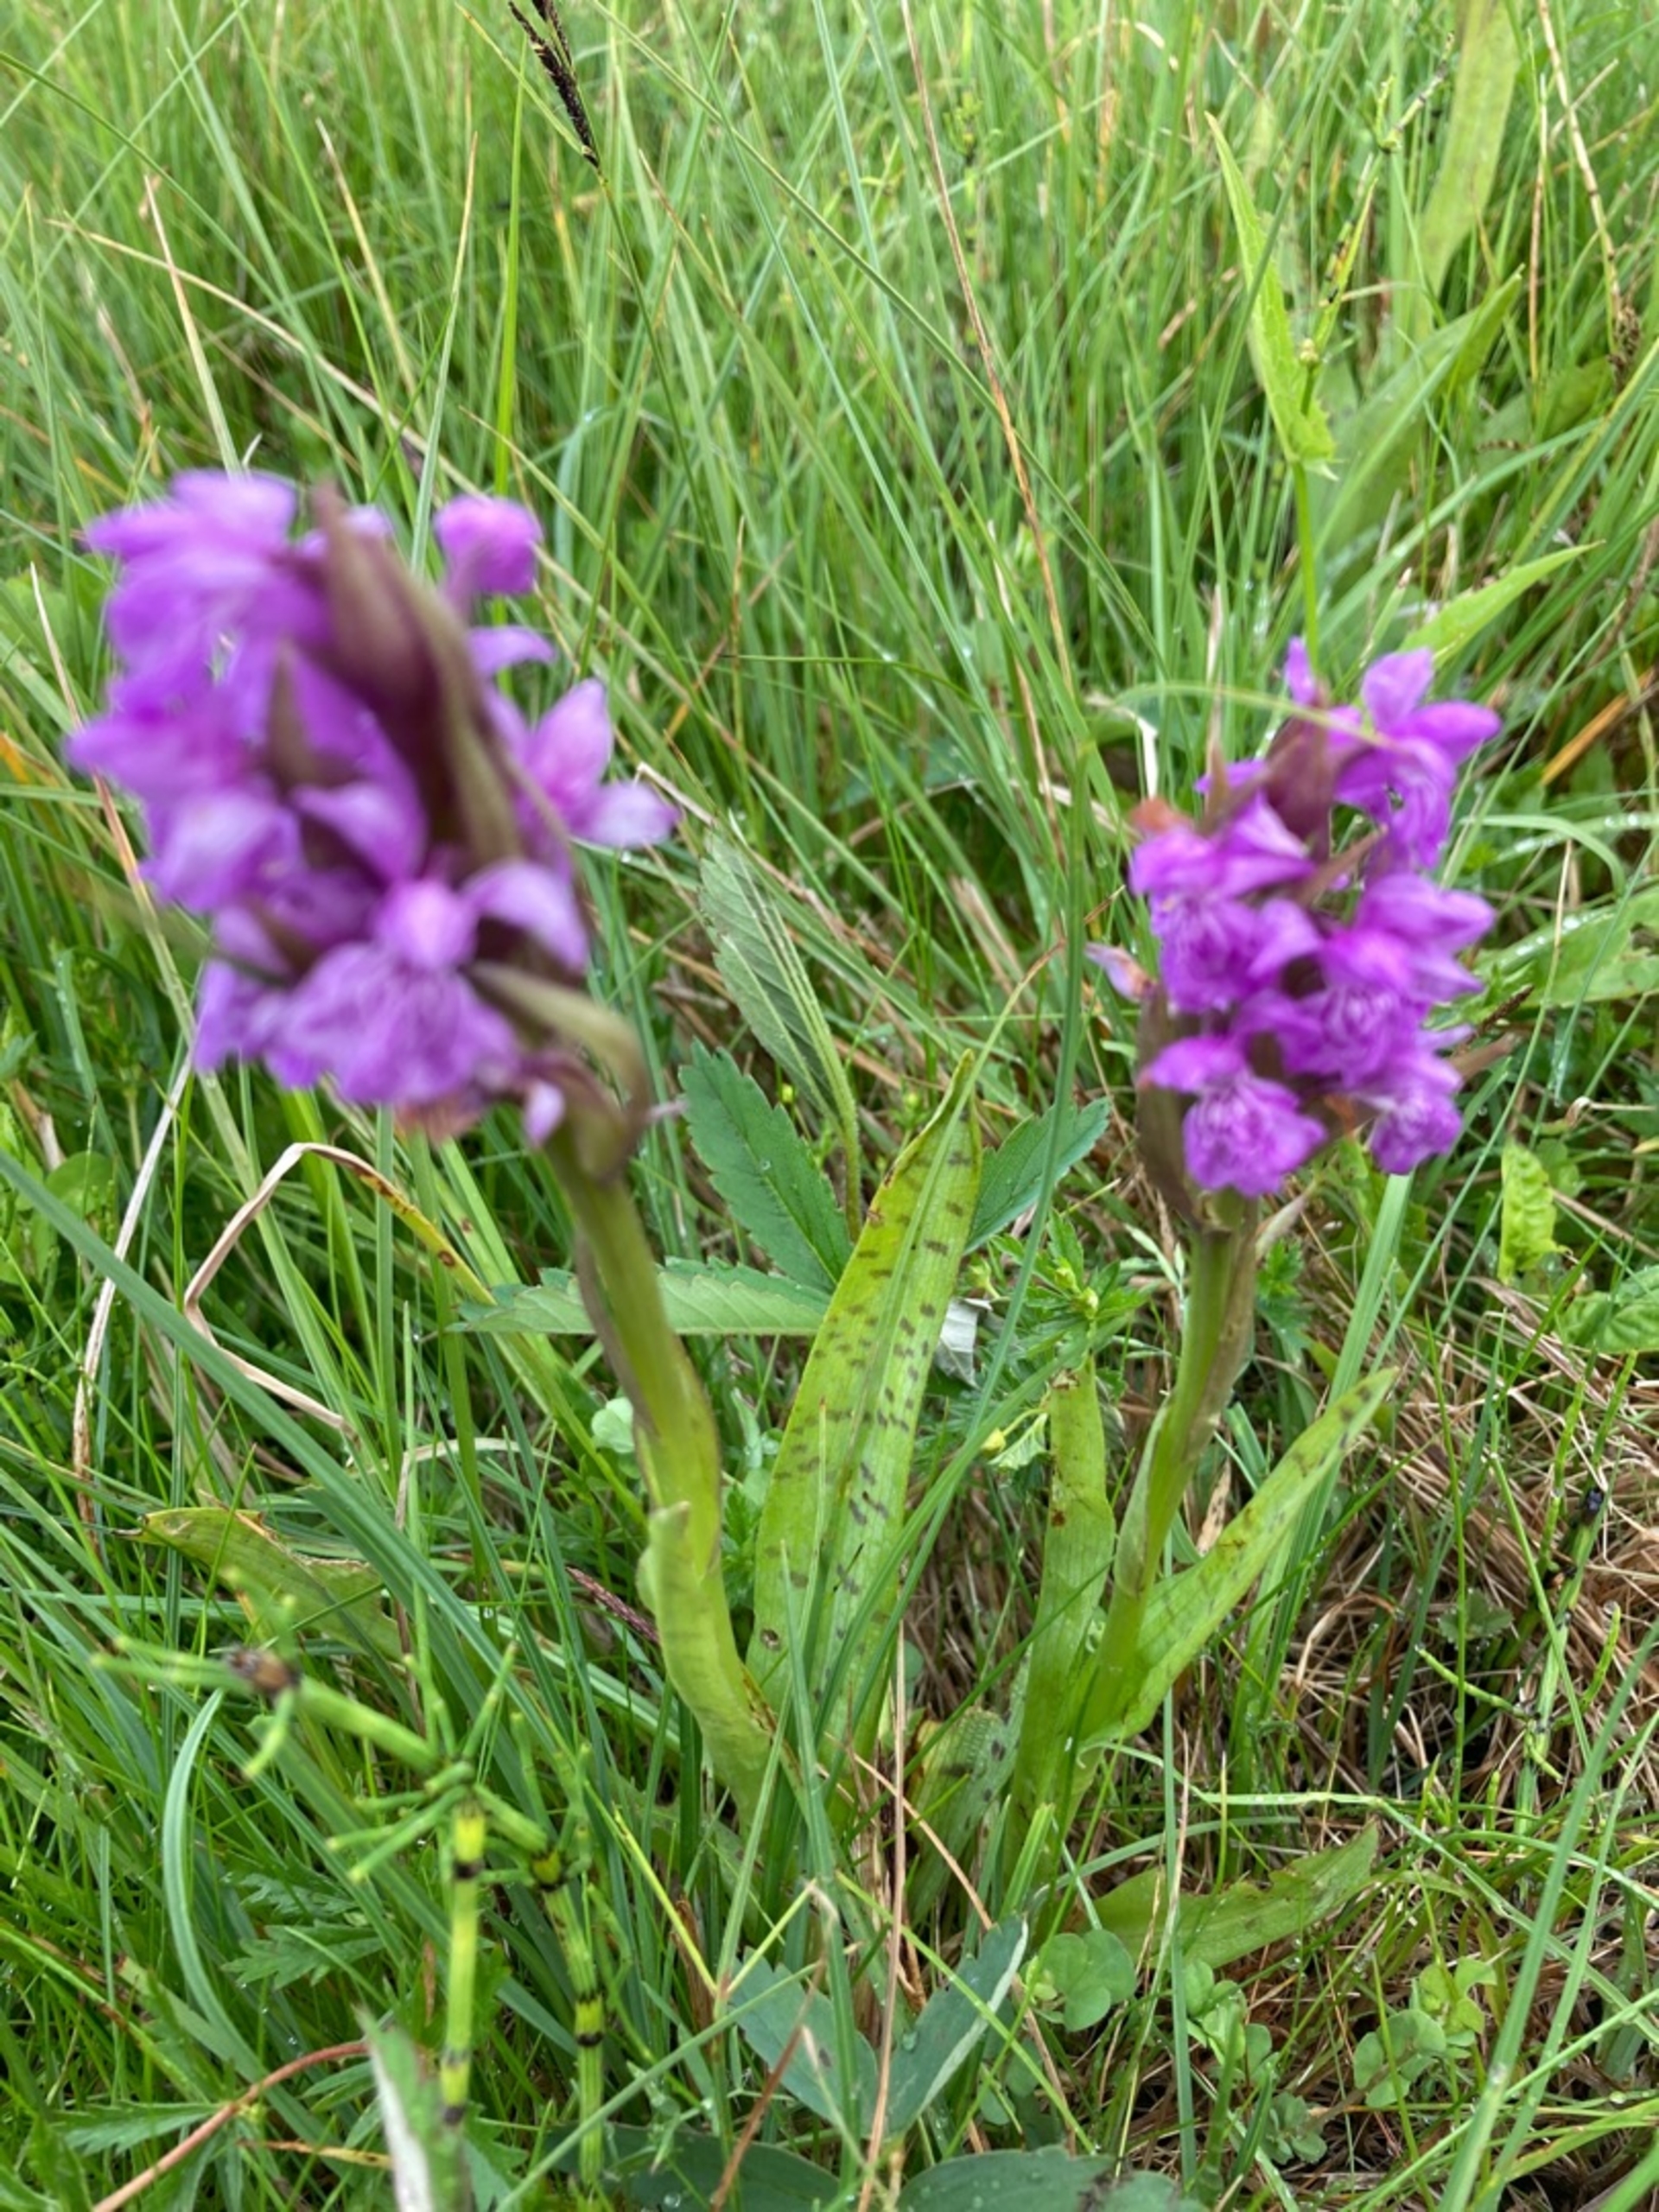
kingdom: Plantae
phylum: Tracheophyta
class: Liliopsida
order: Asparagales
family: Orchidaceae
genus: Dactylorhiza
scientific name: Dactylorhiza majalis
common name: Maj-gøgeurt
